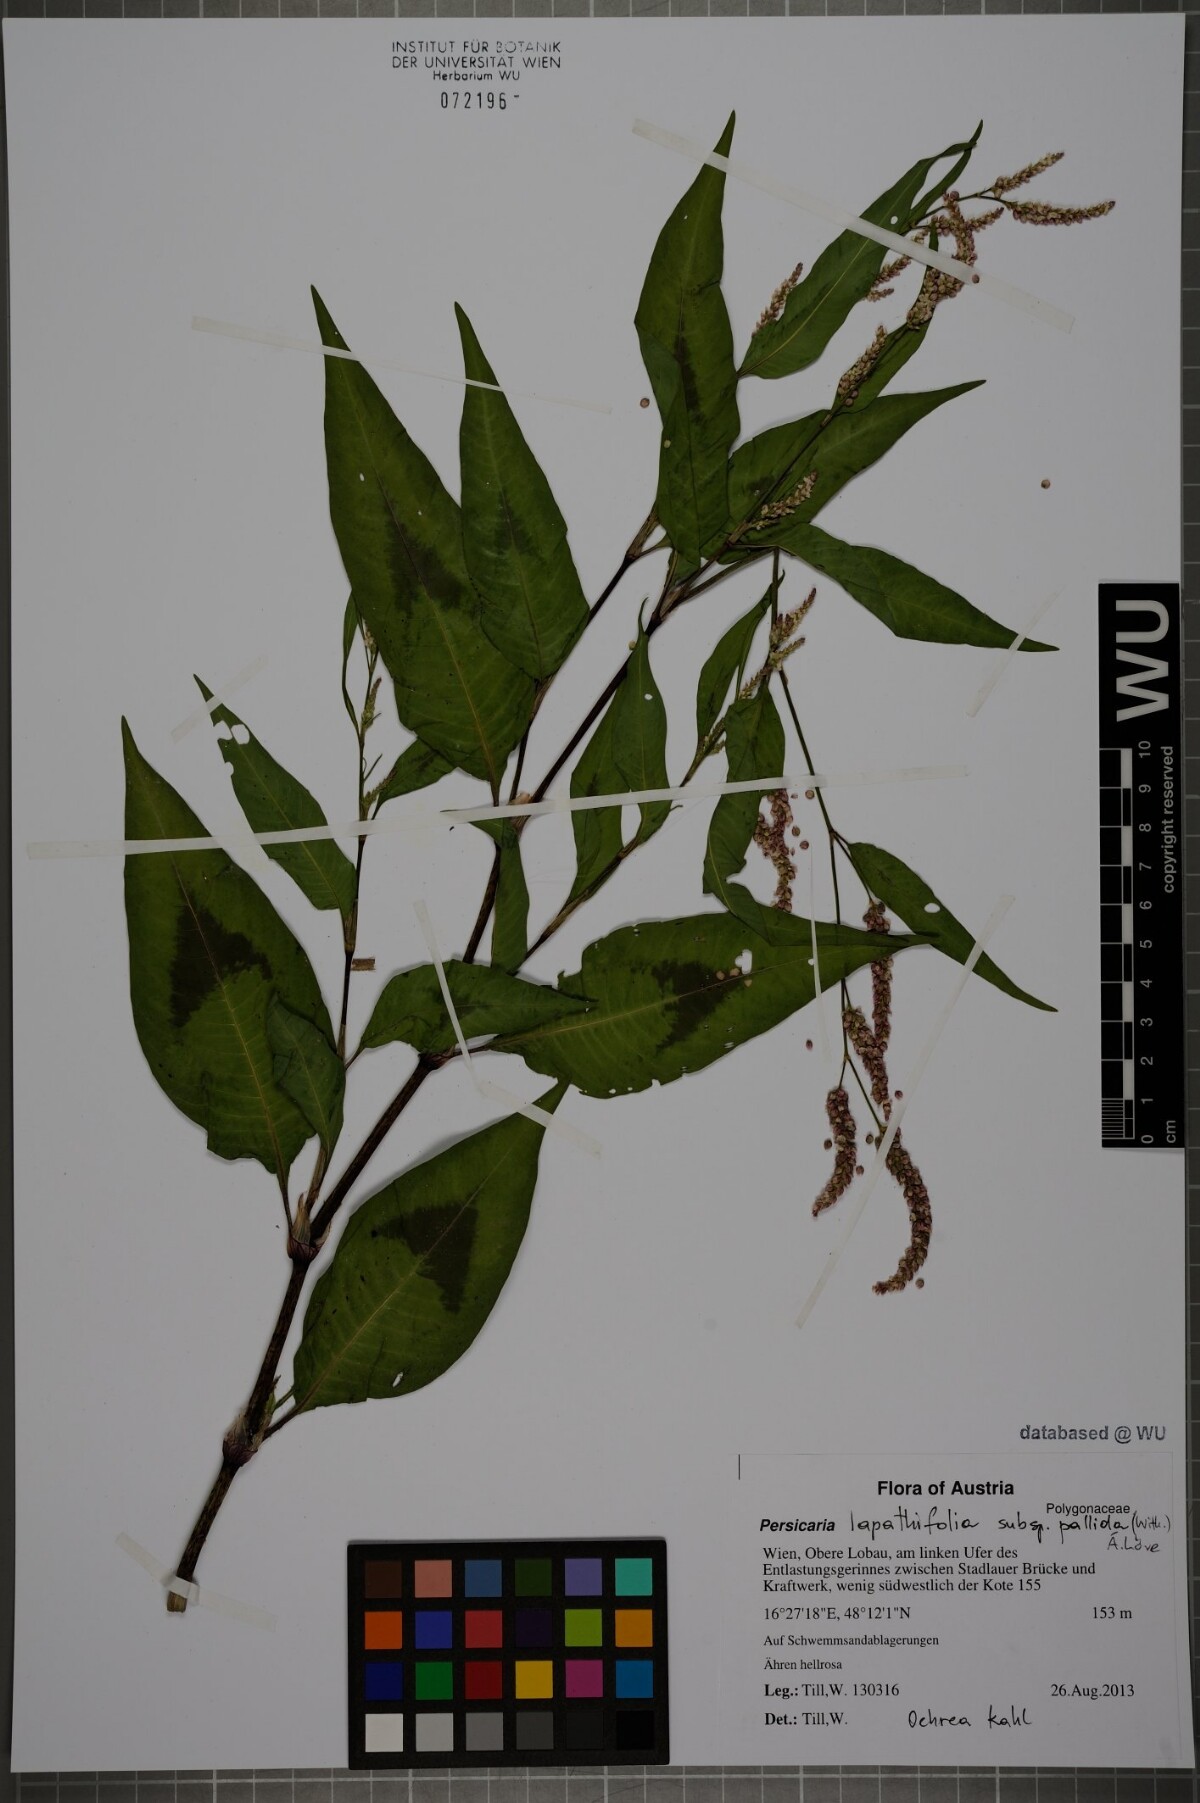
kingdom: Plantae
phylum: Tracheophyta
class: Magnoliopsida
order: Caryophyllales
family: Polygonaceae
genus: Persicaria
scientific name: Persicaria lapathifolia
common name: Curlytop knotweed
